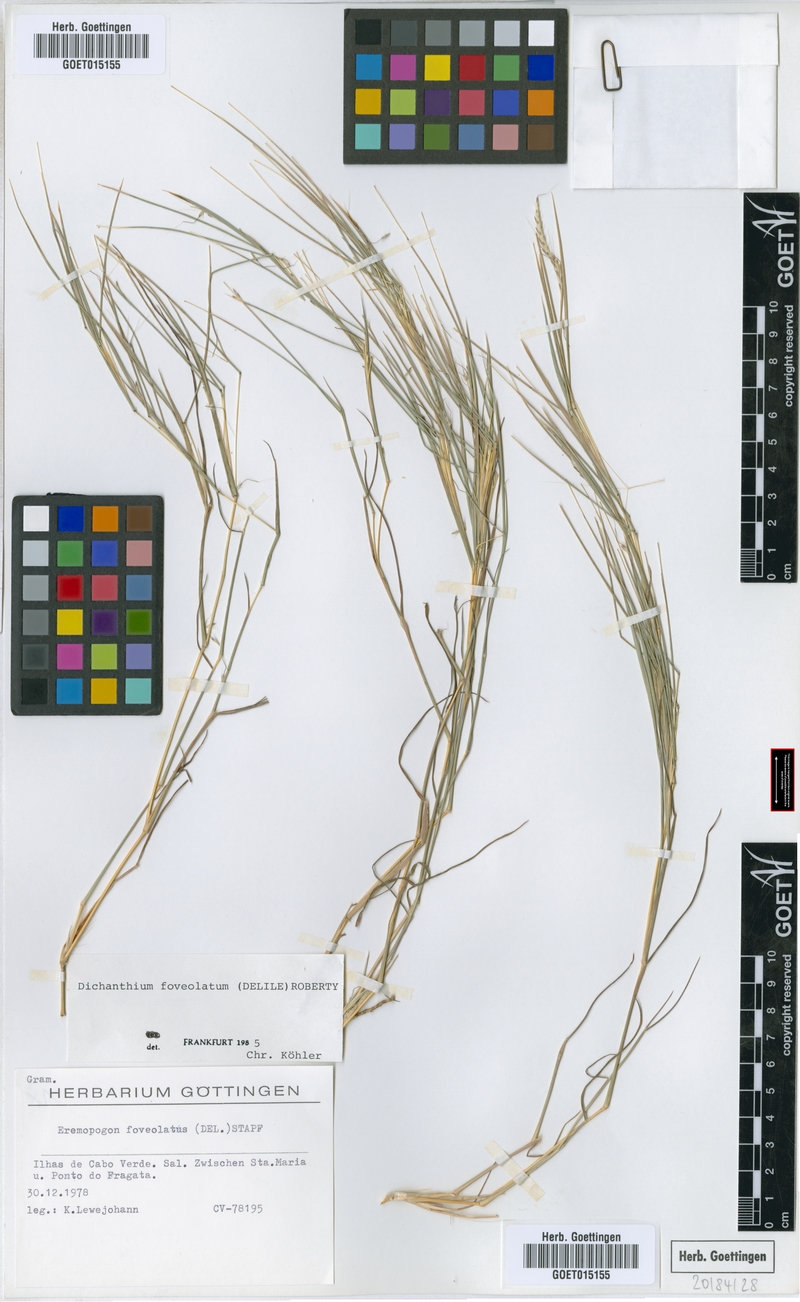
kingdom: Plantae
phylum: Tracheophyta
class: Liliopsida
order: Poales
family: Poaceae
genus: Dichanthium
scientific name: Dichanthium foveolatum
